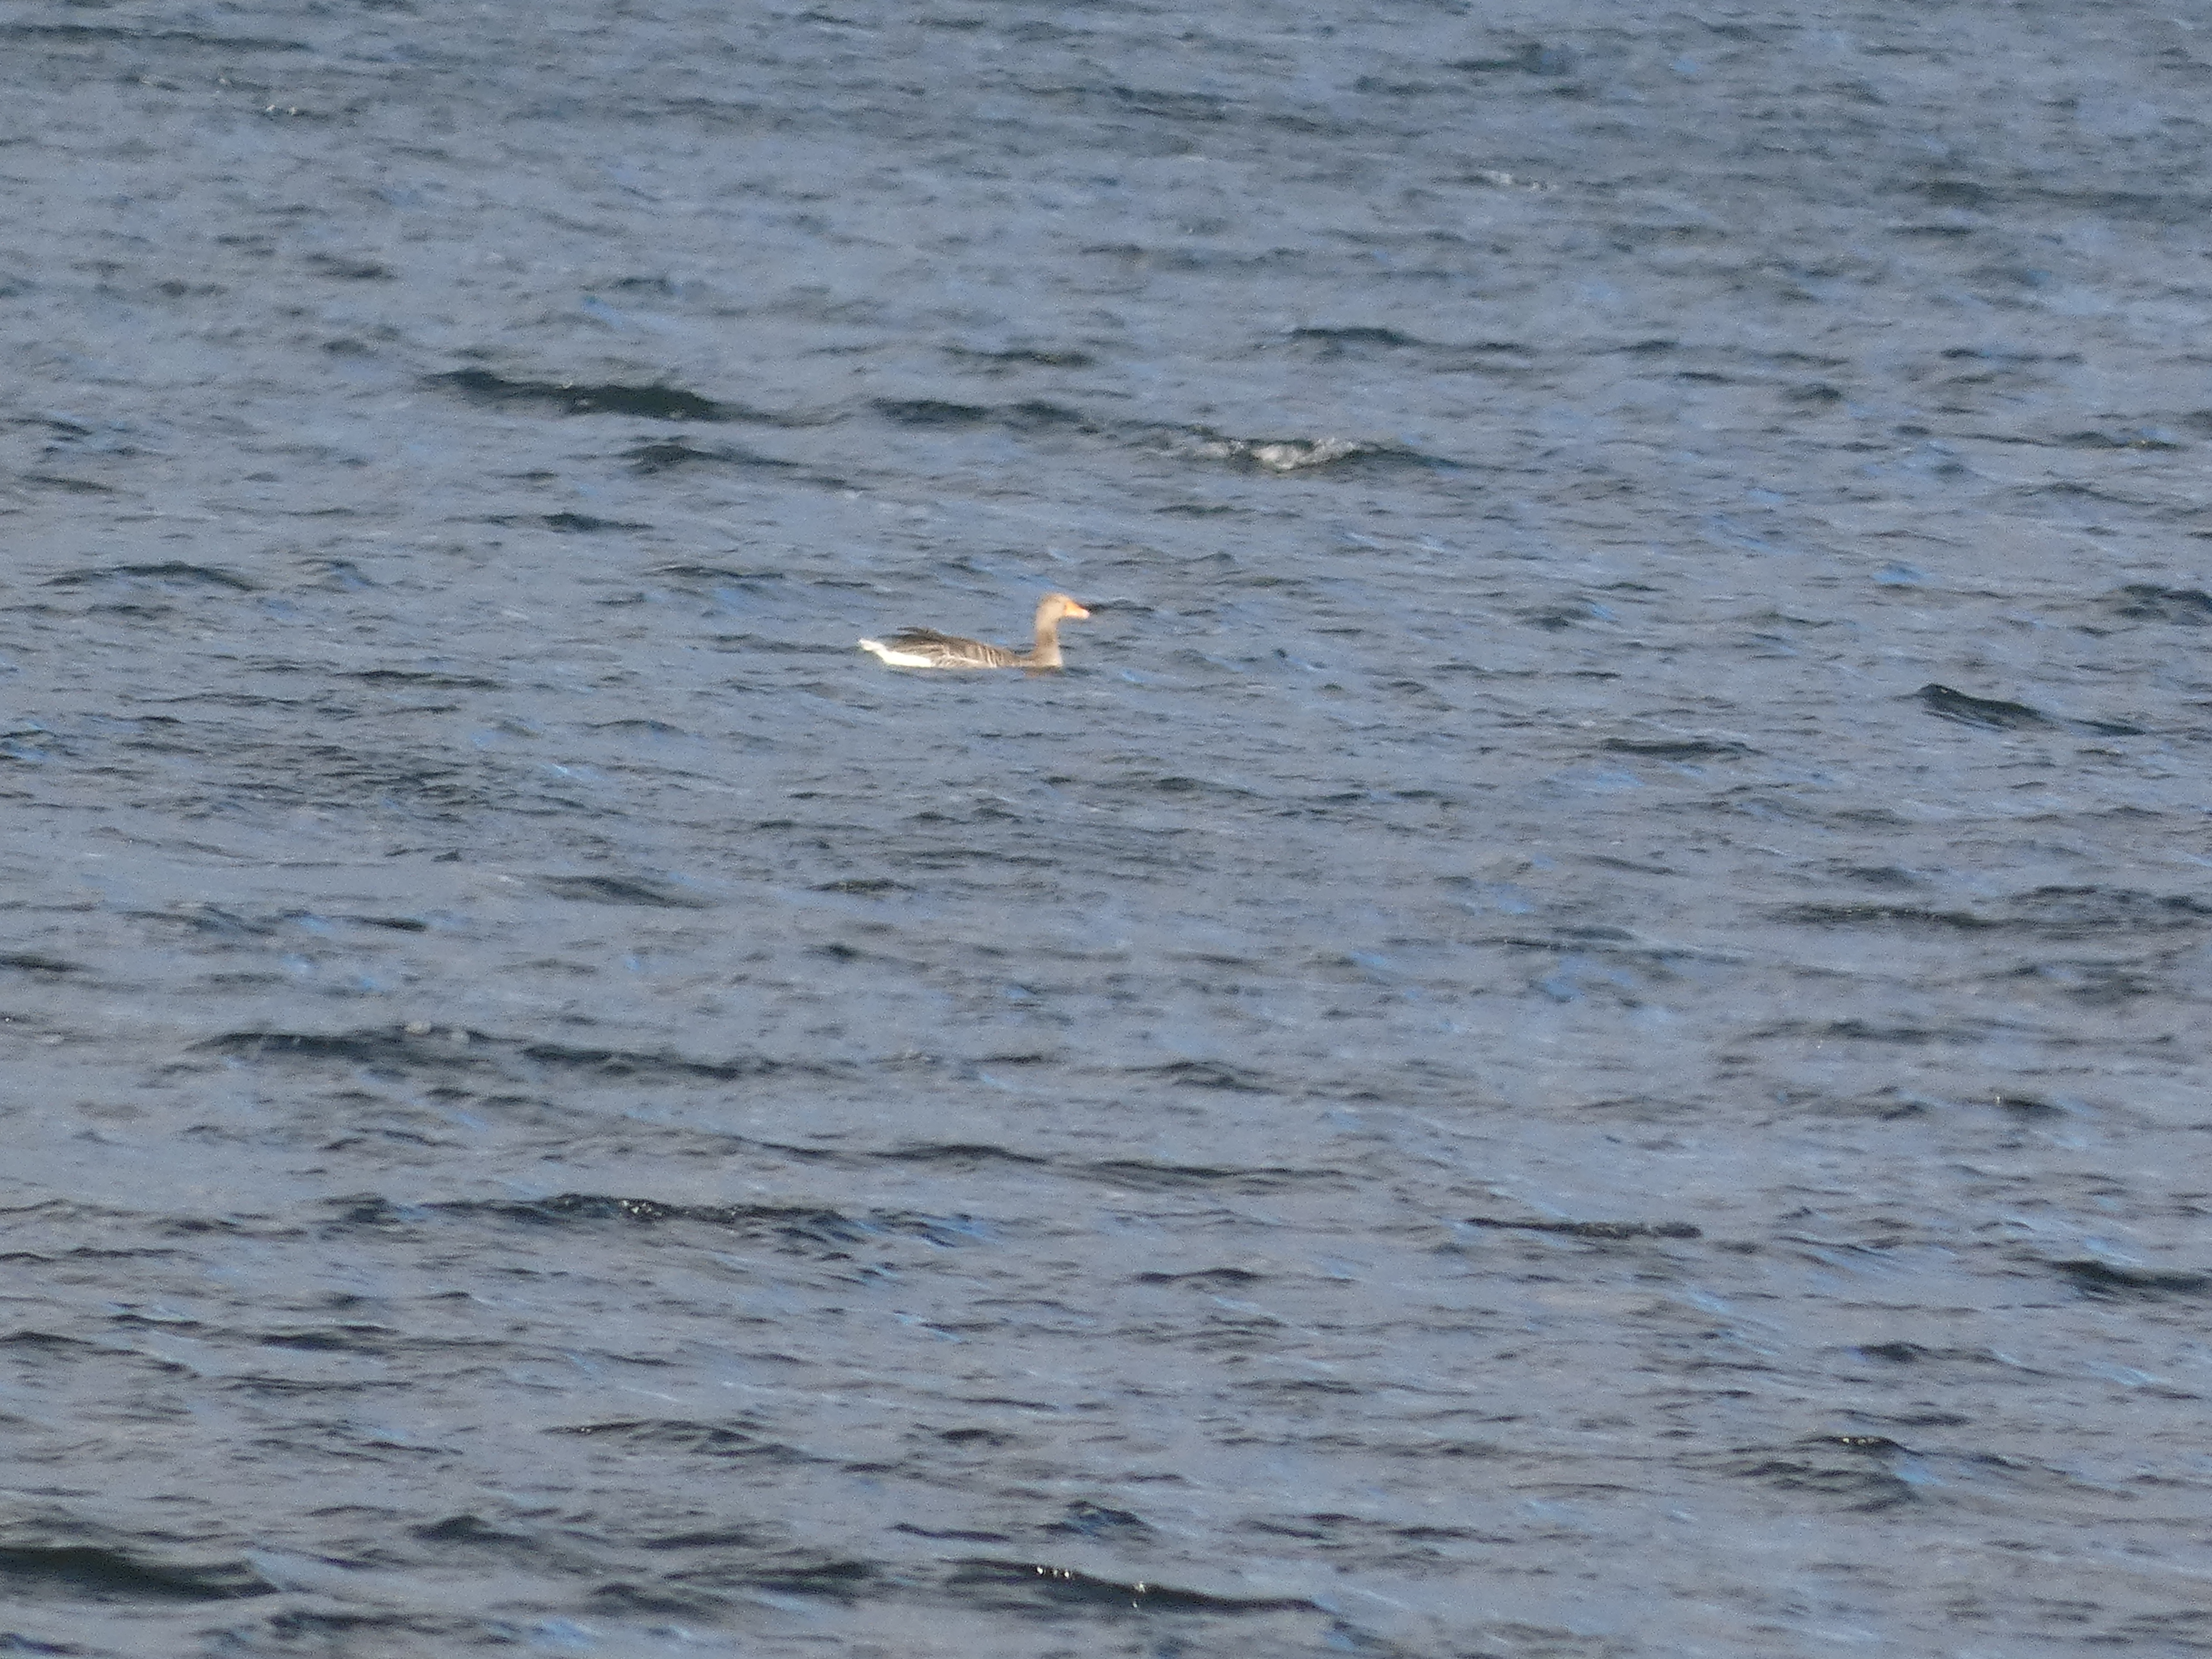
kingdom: Animalia
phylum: Chordata
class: Aves
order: Anseriformes
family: Anatidae
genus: Anser
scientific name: Anser anser
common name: Grågås
